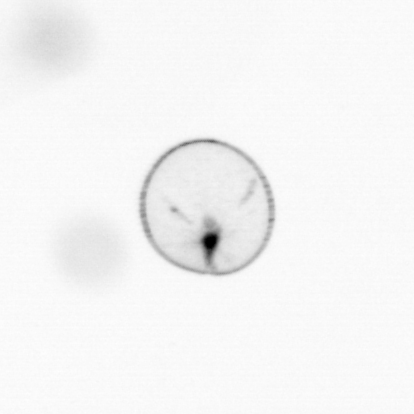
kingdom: Chromista
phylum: Myzozoa
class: Dinophyceae
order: Noctilucales
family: Noctilucaceae
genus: Noctiluca
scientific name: Noctiluca scintillans
